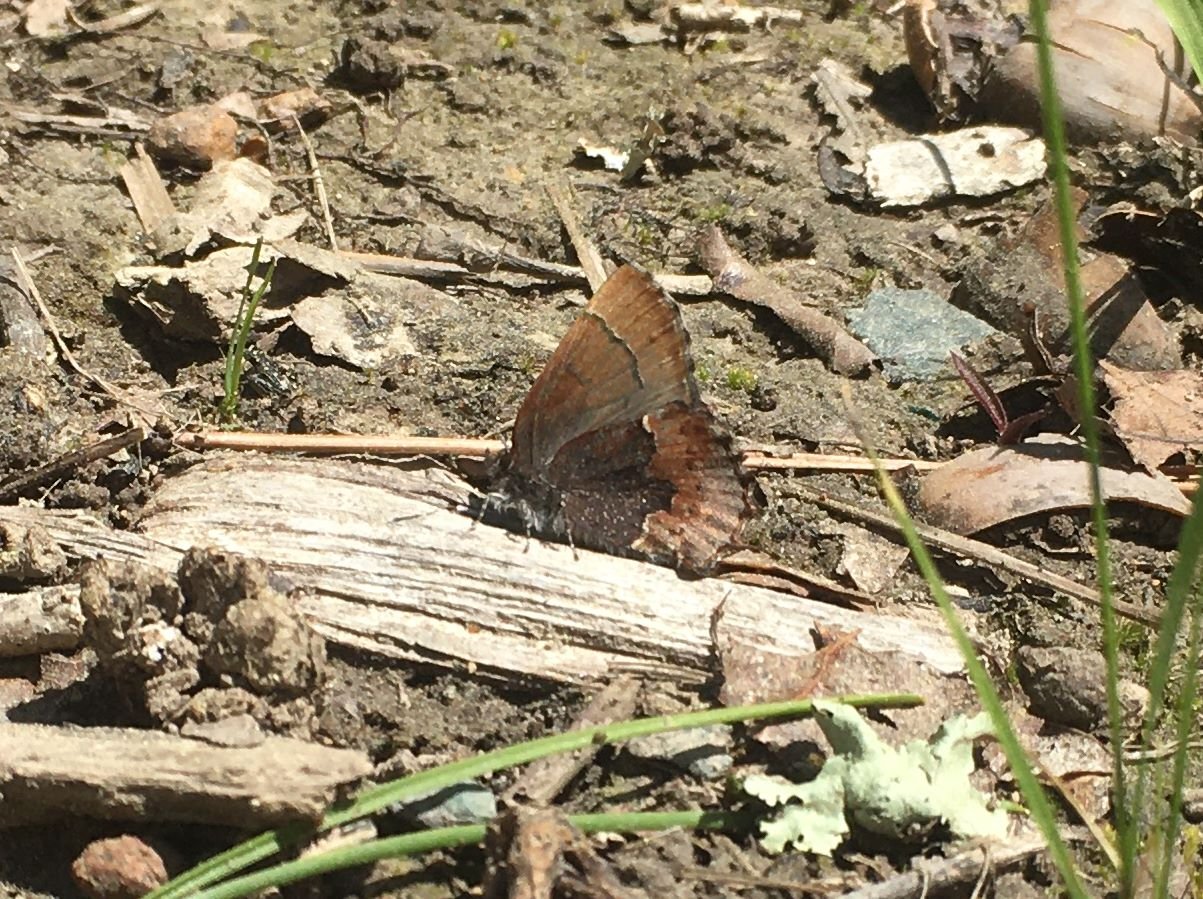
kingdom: Animalia
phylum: Arthropoda
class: Insecta
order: Lepidoptera
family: Lycaenidae
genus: Incisalia
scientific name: Incisalia henrici
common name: Henry's Elfin
